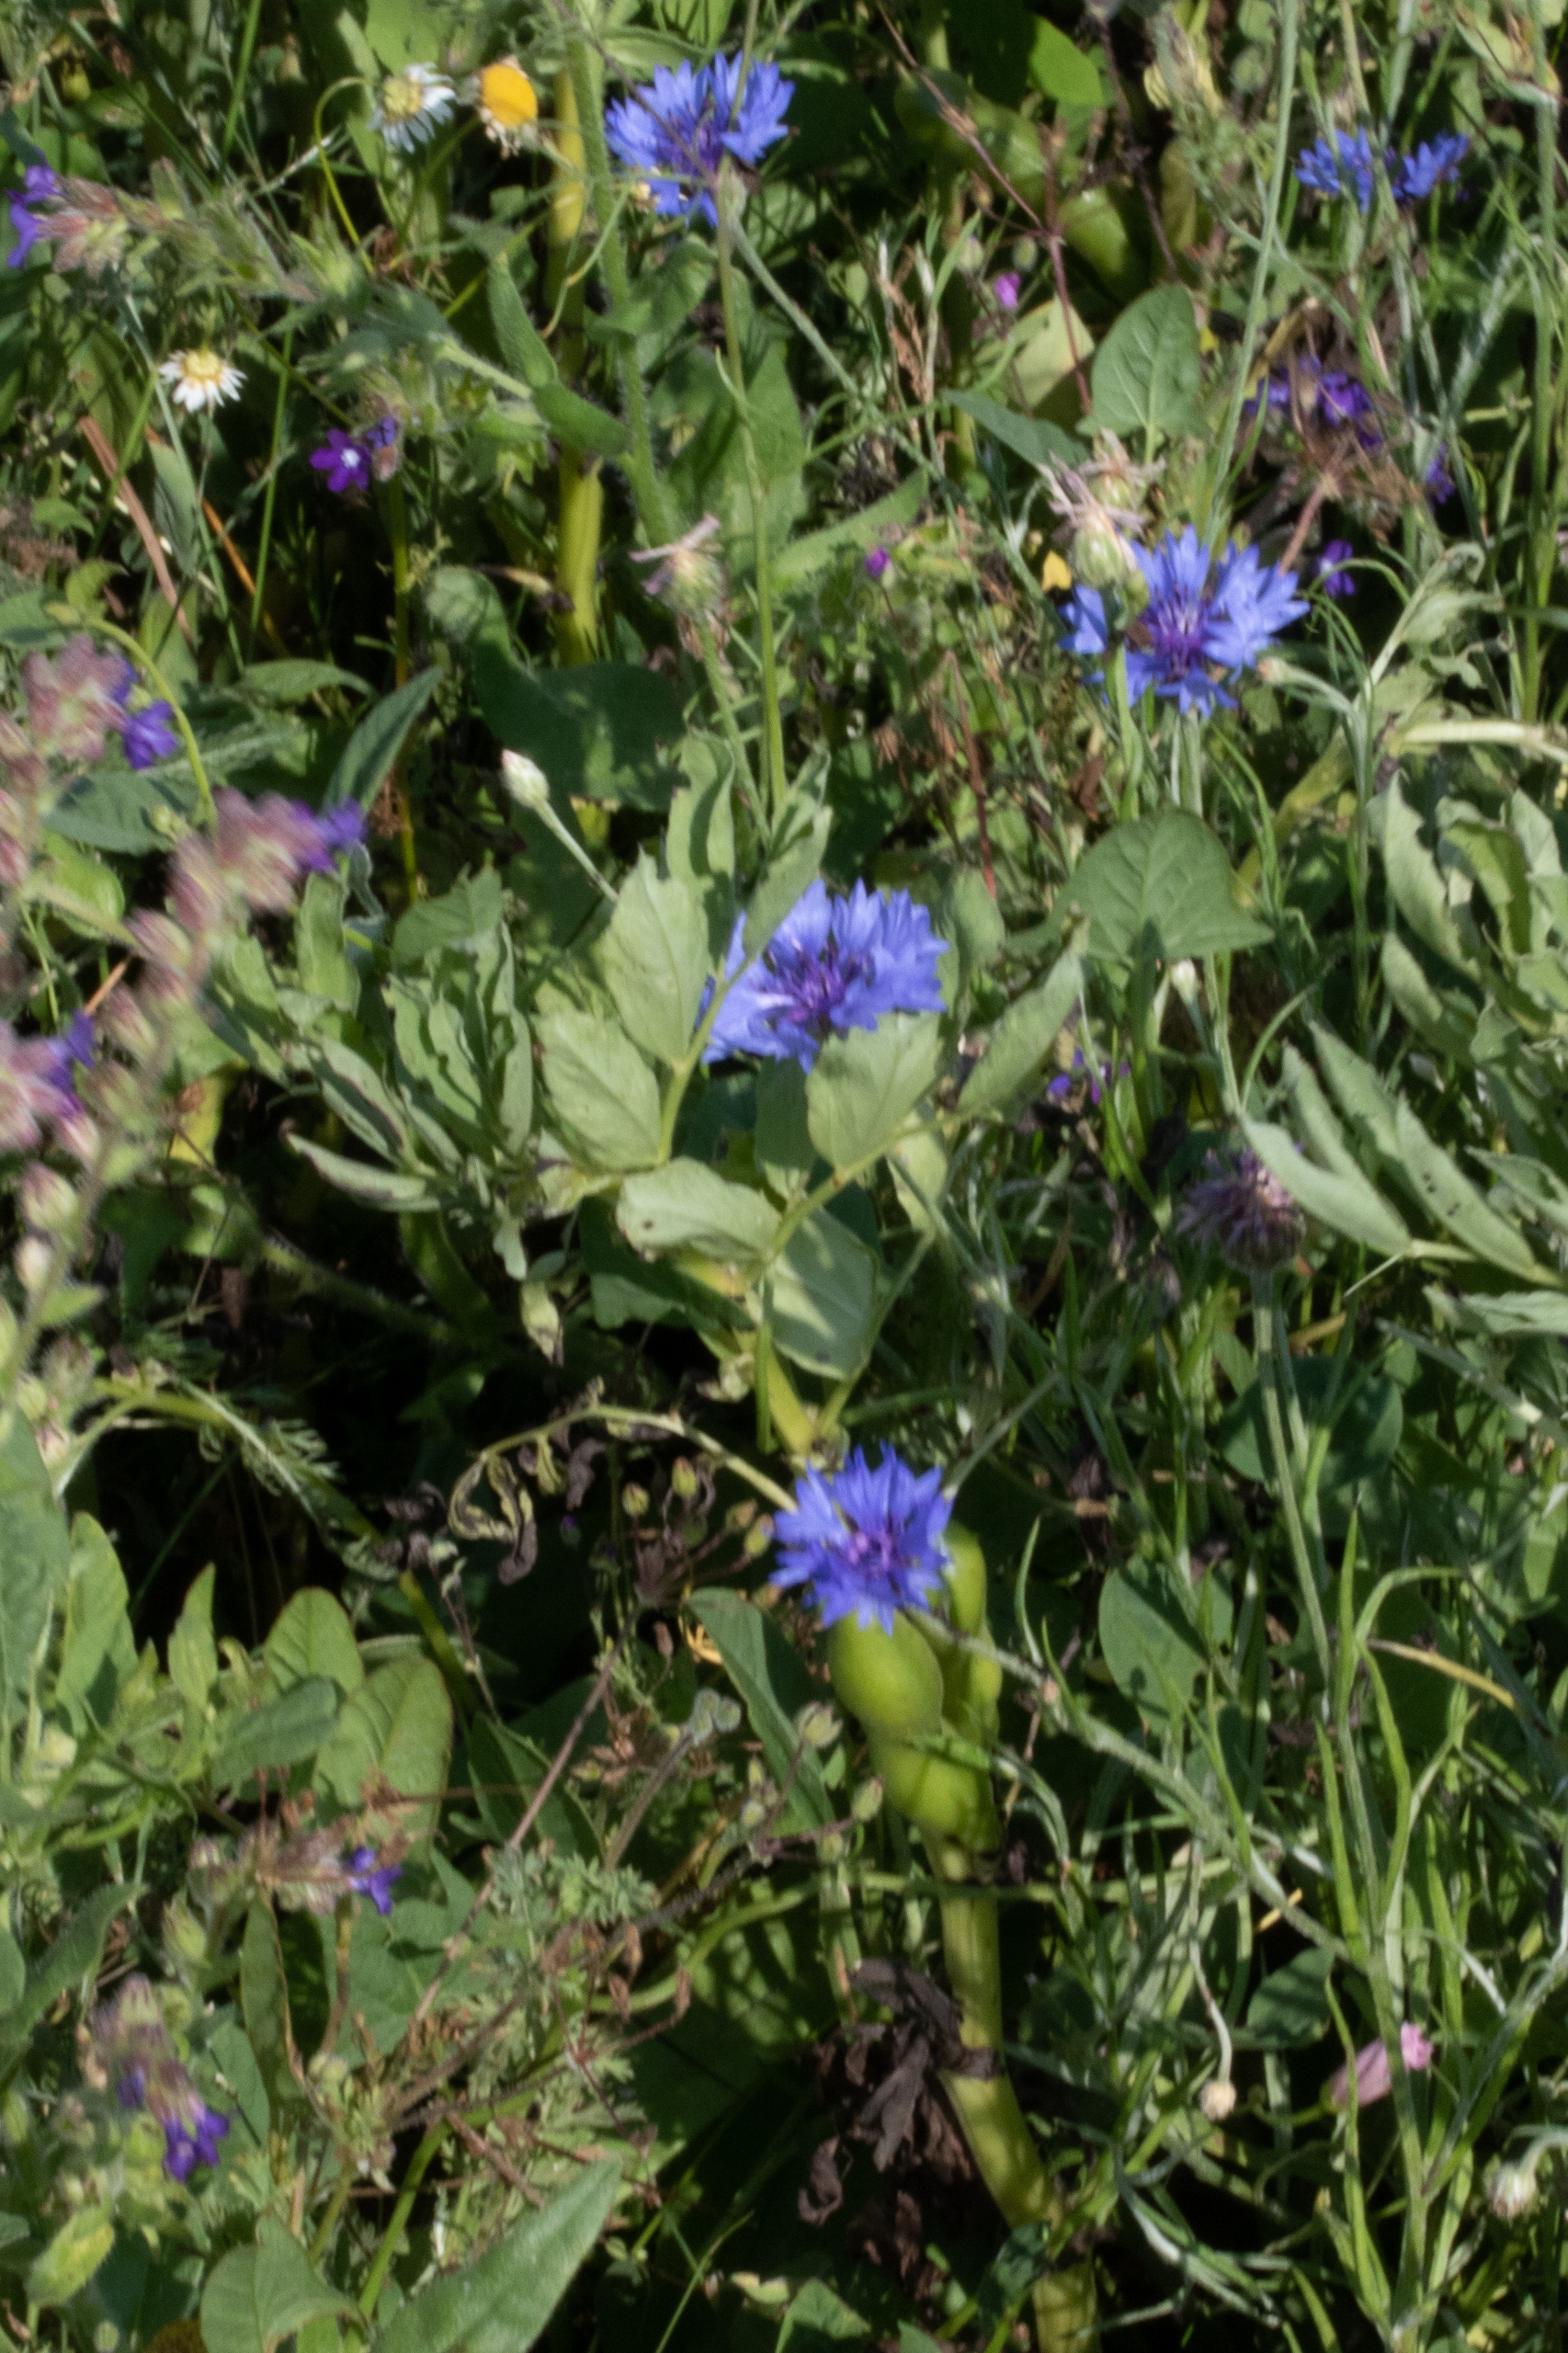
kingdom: Plantae
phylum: Tracheophyta
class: Magnoliopsida
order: Fabales
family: Fabaceae
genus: Vicia
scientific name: Vicia cracca
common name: Muse-vikke
